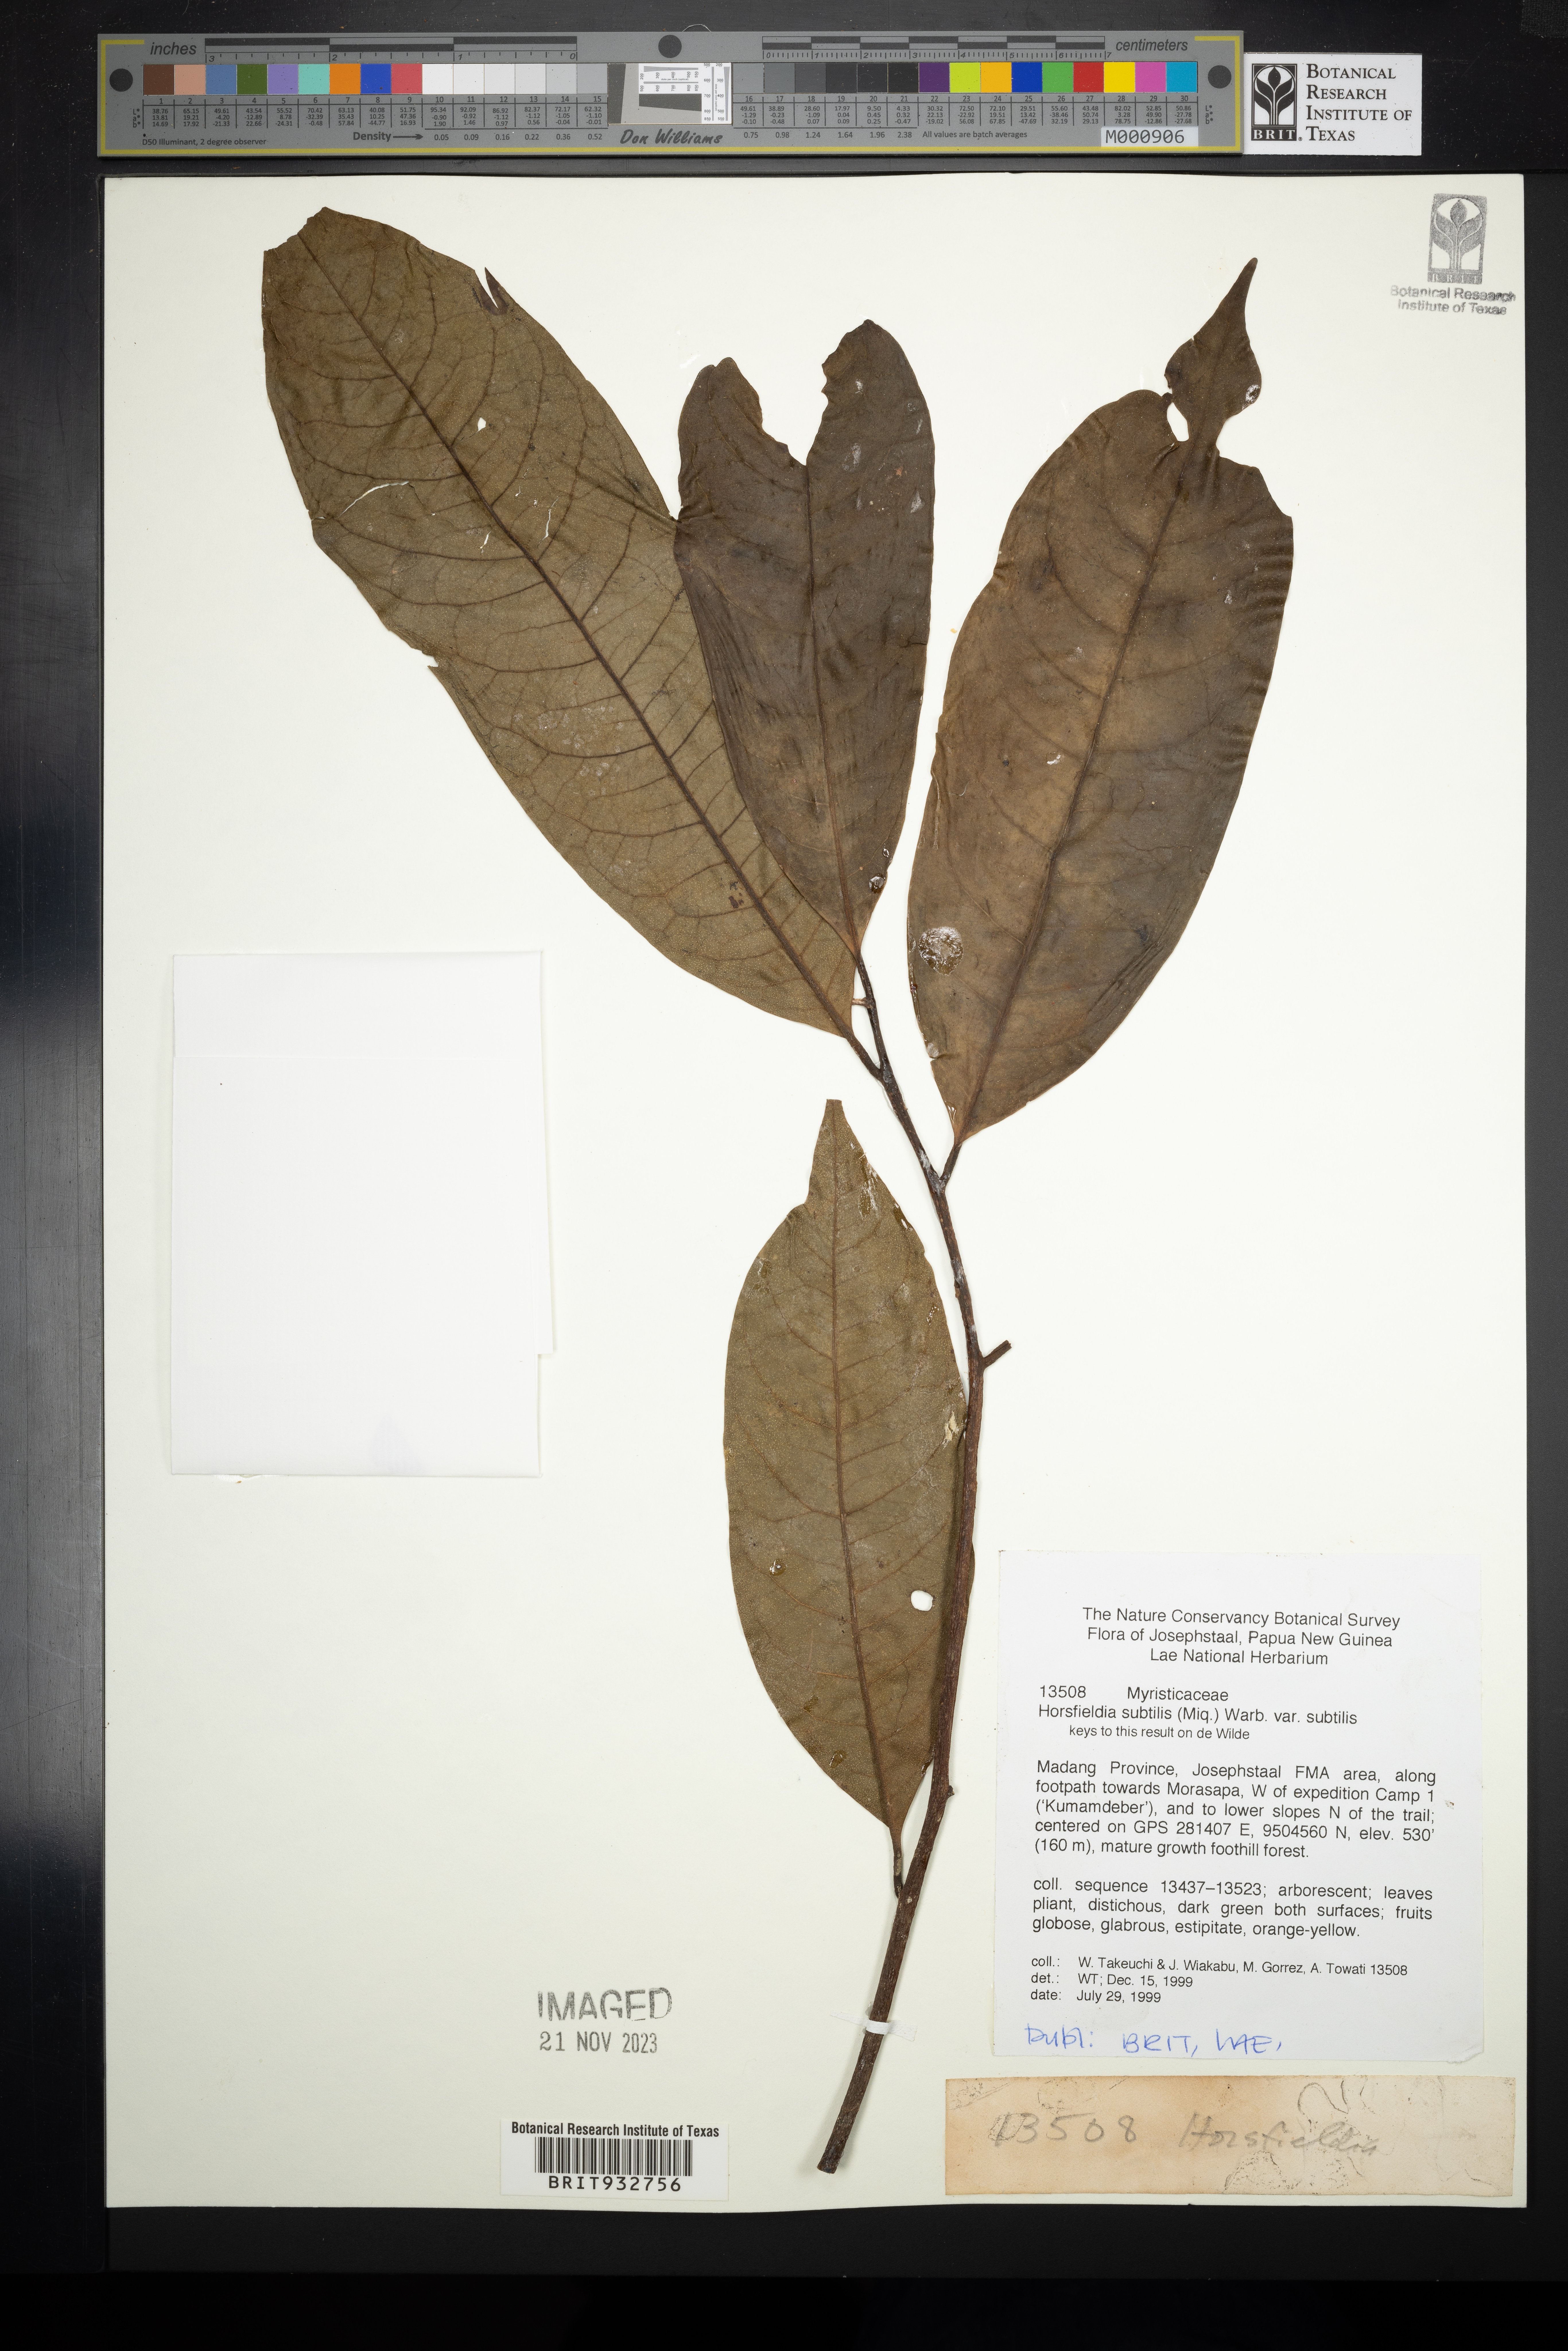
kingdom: Plantae
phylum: Tracheophyta
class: Magnoliopsida
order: Magnoliales
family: Myristicaceae
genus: Horsfieldia
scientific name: Horsfieldia
